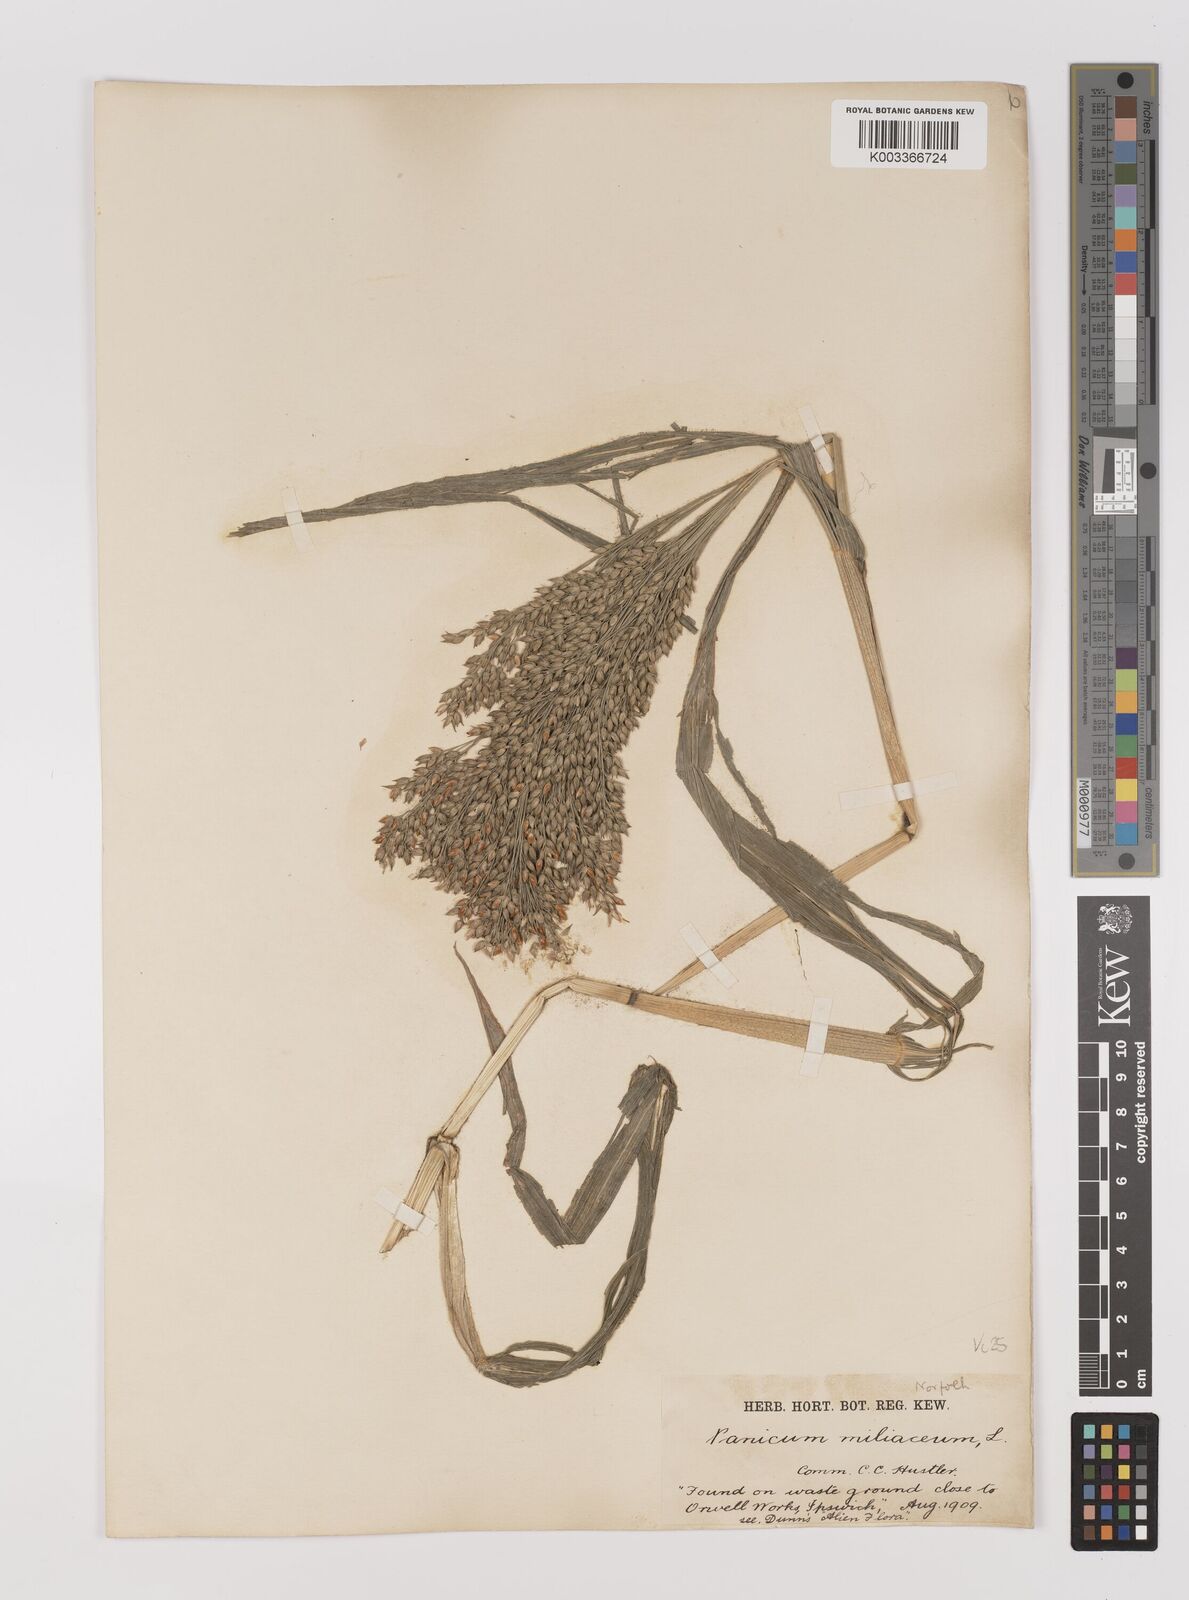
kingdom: Plantae
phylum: Tracheophyta
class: Liliopsida
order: Poales
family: Poaceae
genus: Panicum
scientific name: Panicum miliaceum
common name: Common millet
